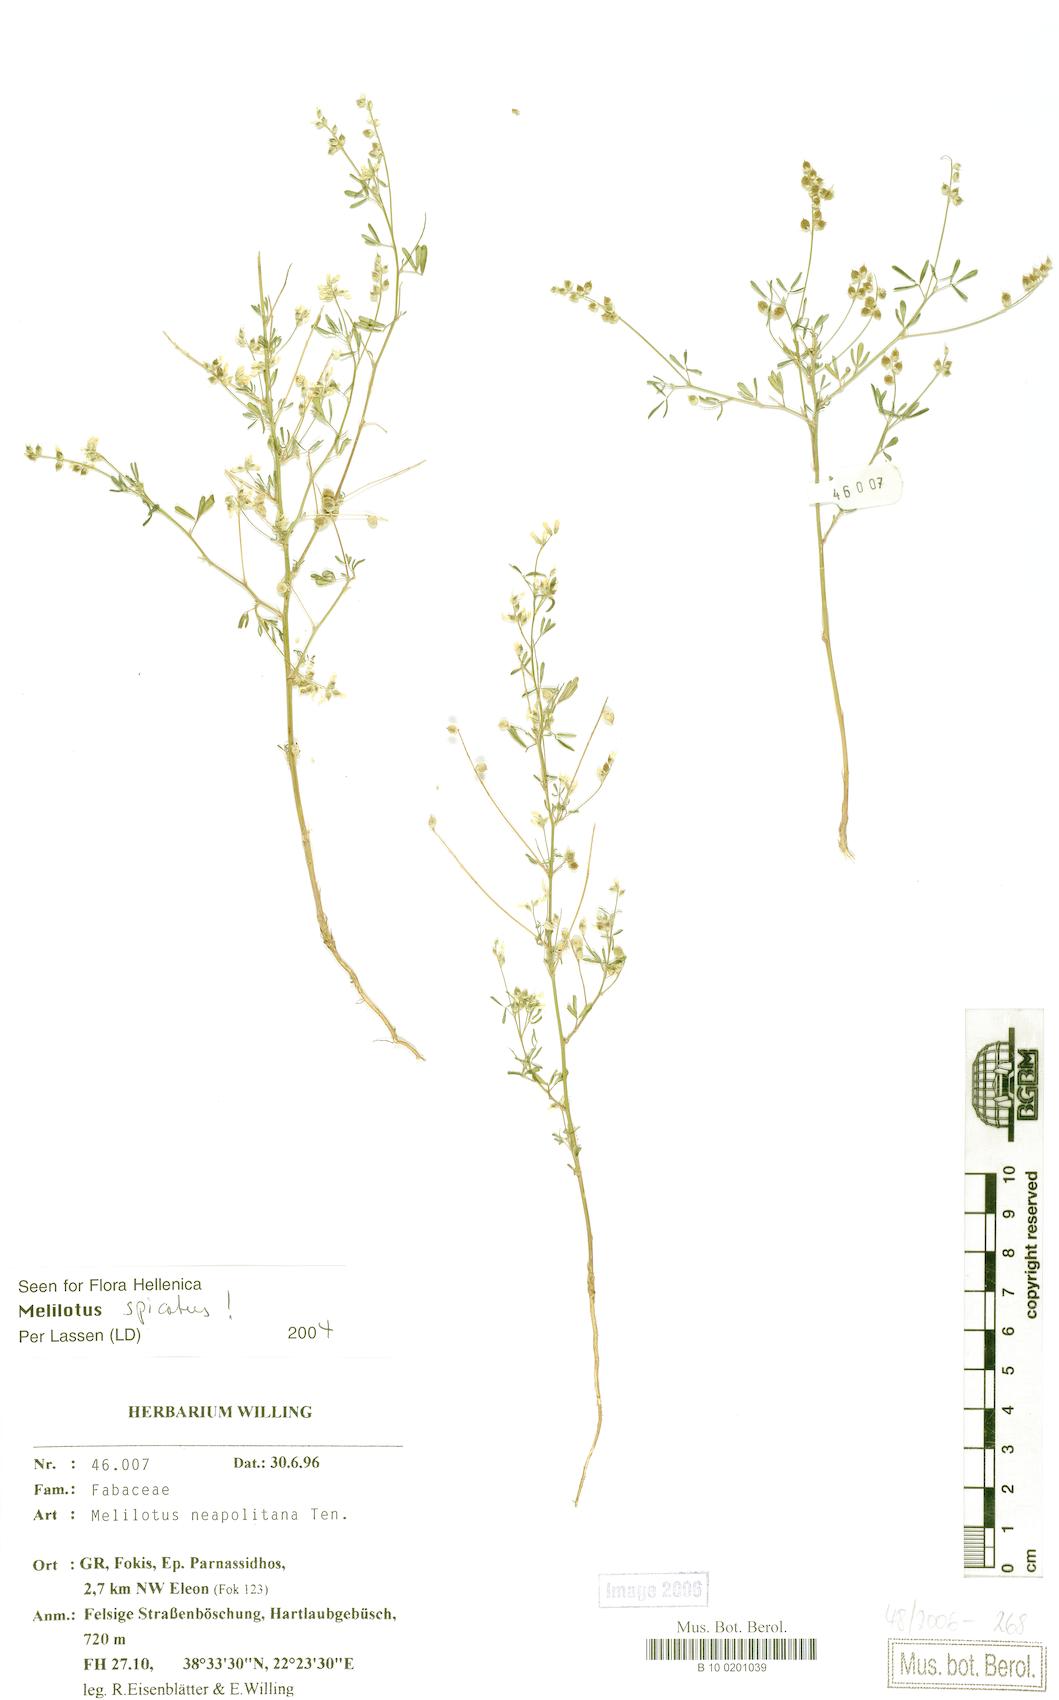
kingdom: Plantae
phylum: Tracheophyta
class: Magnoliopsida
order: Fabales
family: Fabaceae
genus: Melilotus
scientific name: Melilotus neapolitanus
